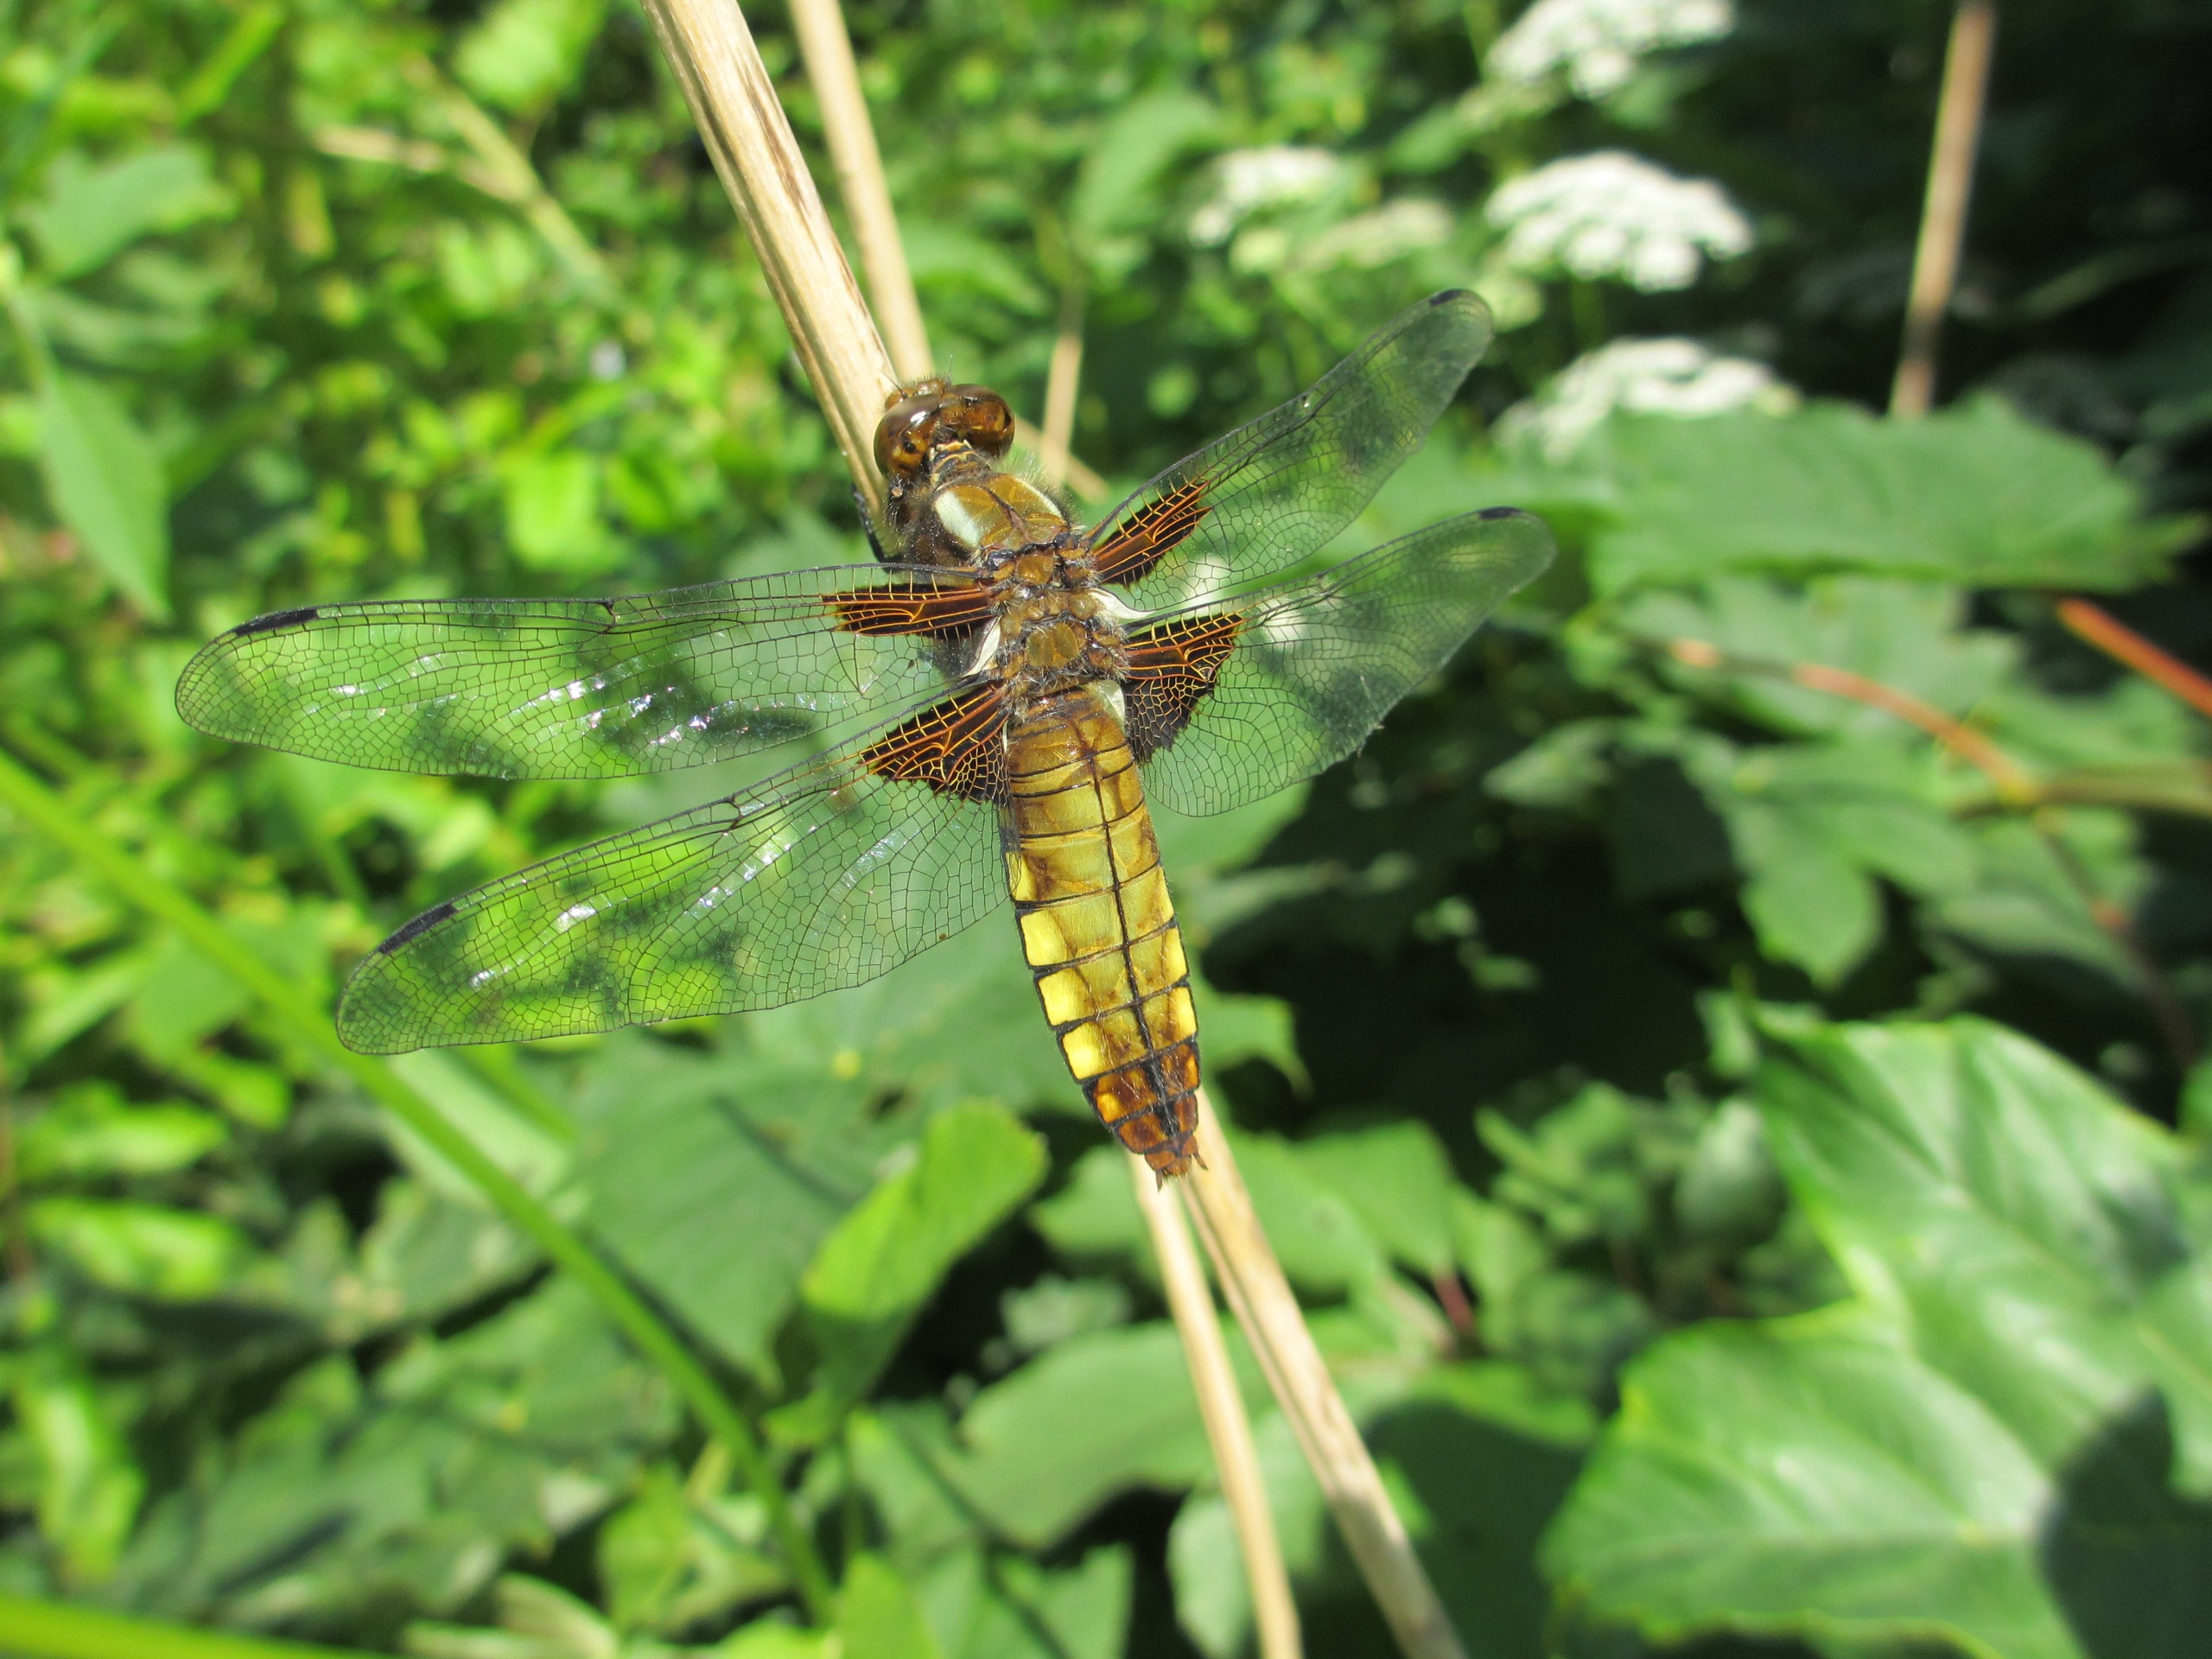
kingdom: Animalia
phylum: Arthropoda
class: Insecta
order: Odonata
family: Libellulidae
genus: Libellula
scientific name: Libellula depressa
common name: Blå libel
